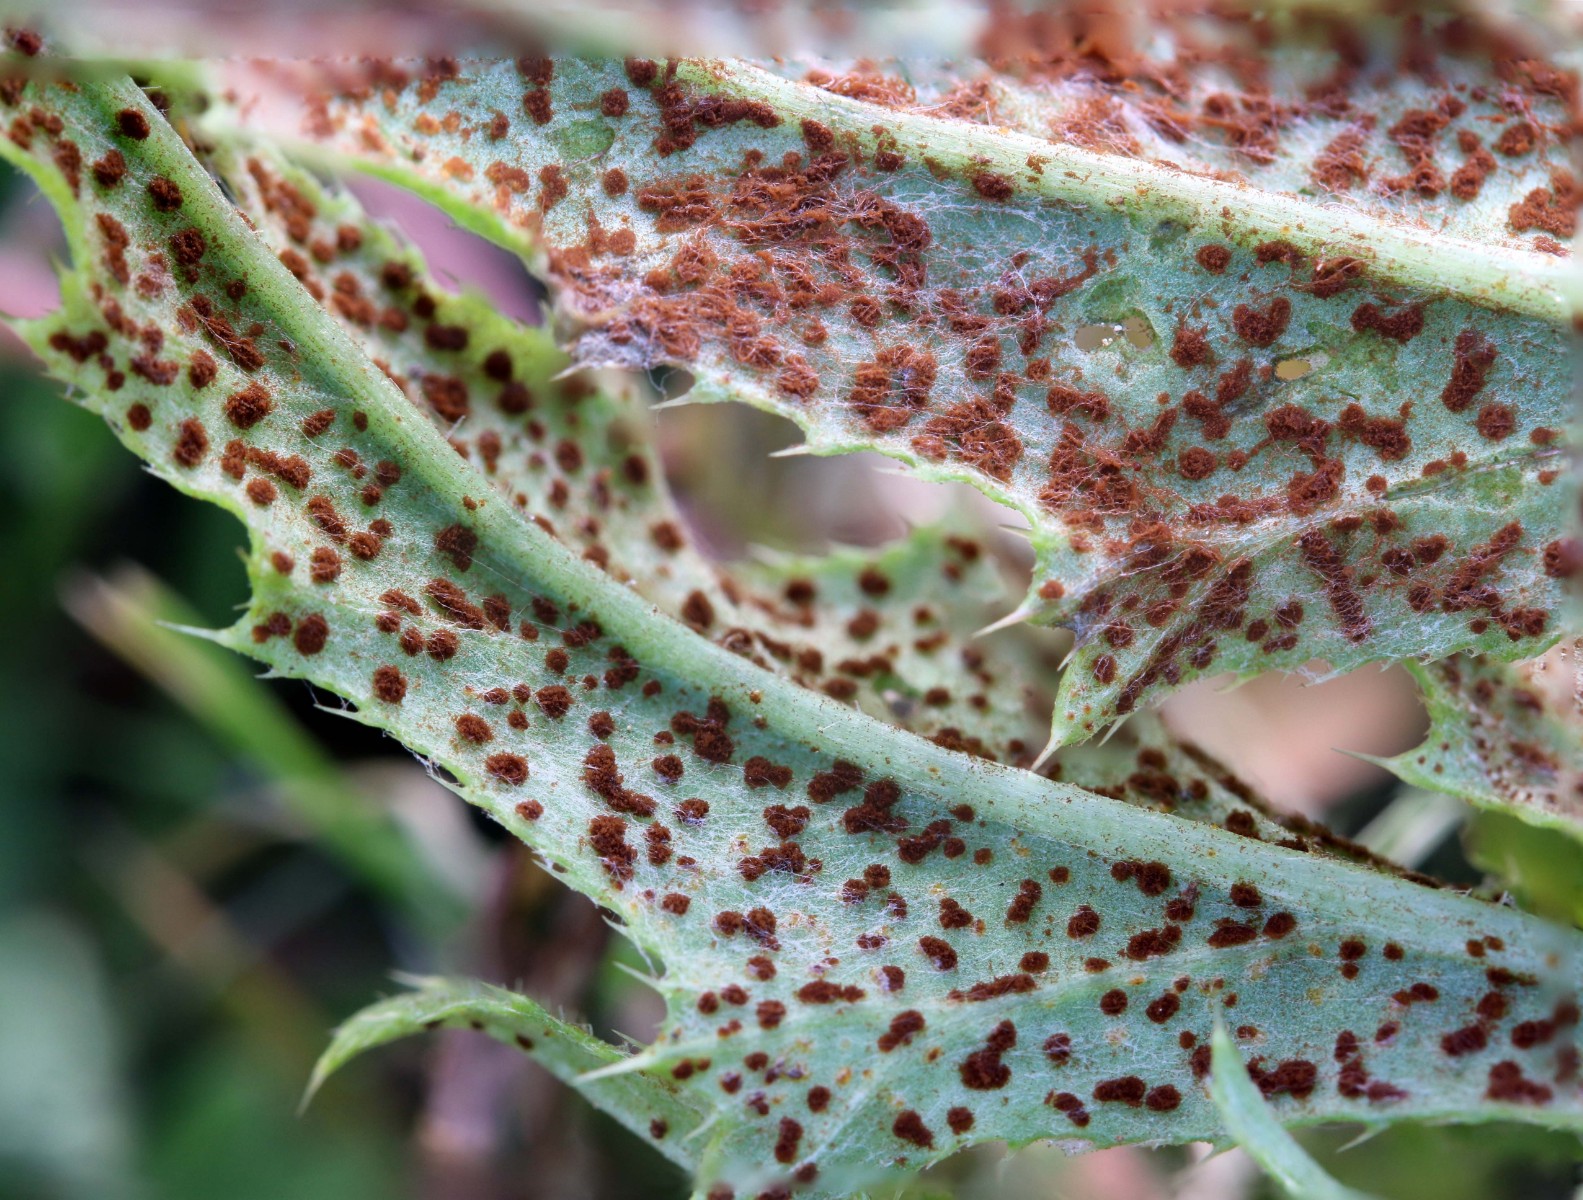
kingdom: Fungi
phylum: Basidiomycota
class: Pucciniomycetes
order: Pucciniales
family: Pucciniaceae
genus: Puccinia
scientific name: Puccinia suaveolens
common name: tidsel-tvecellerust
